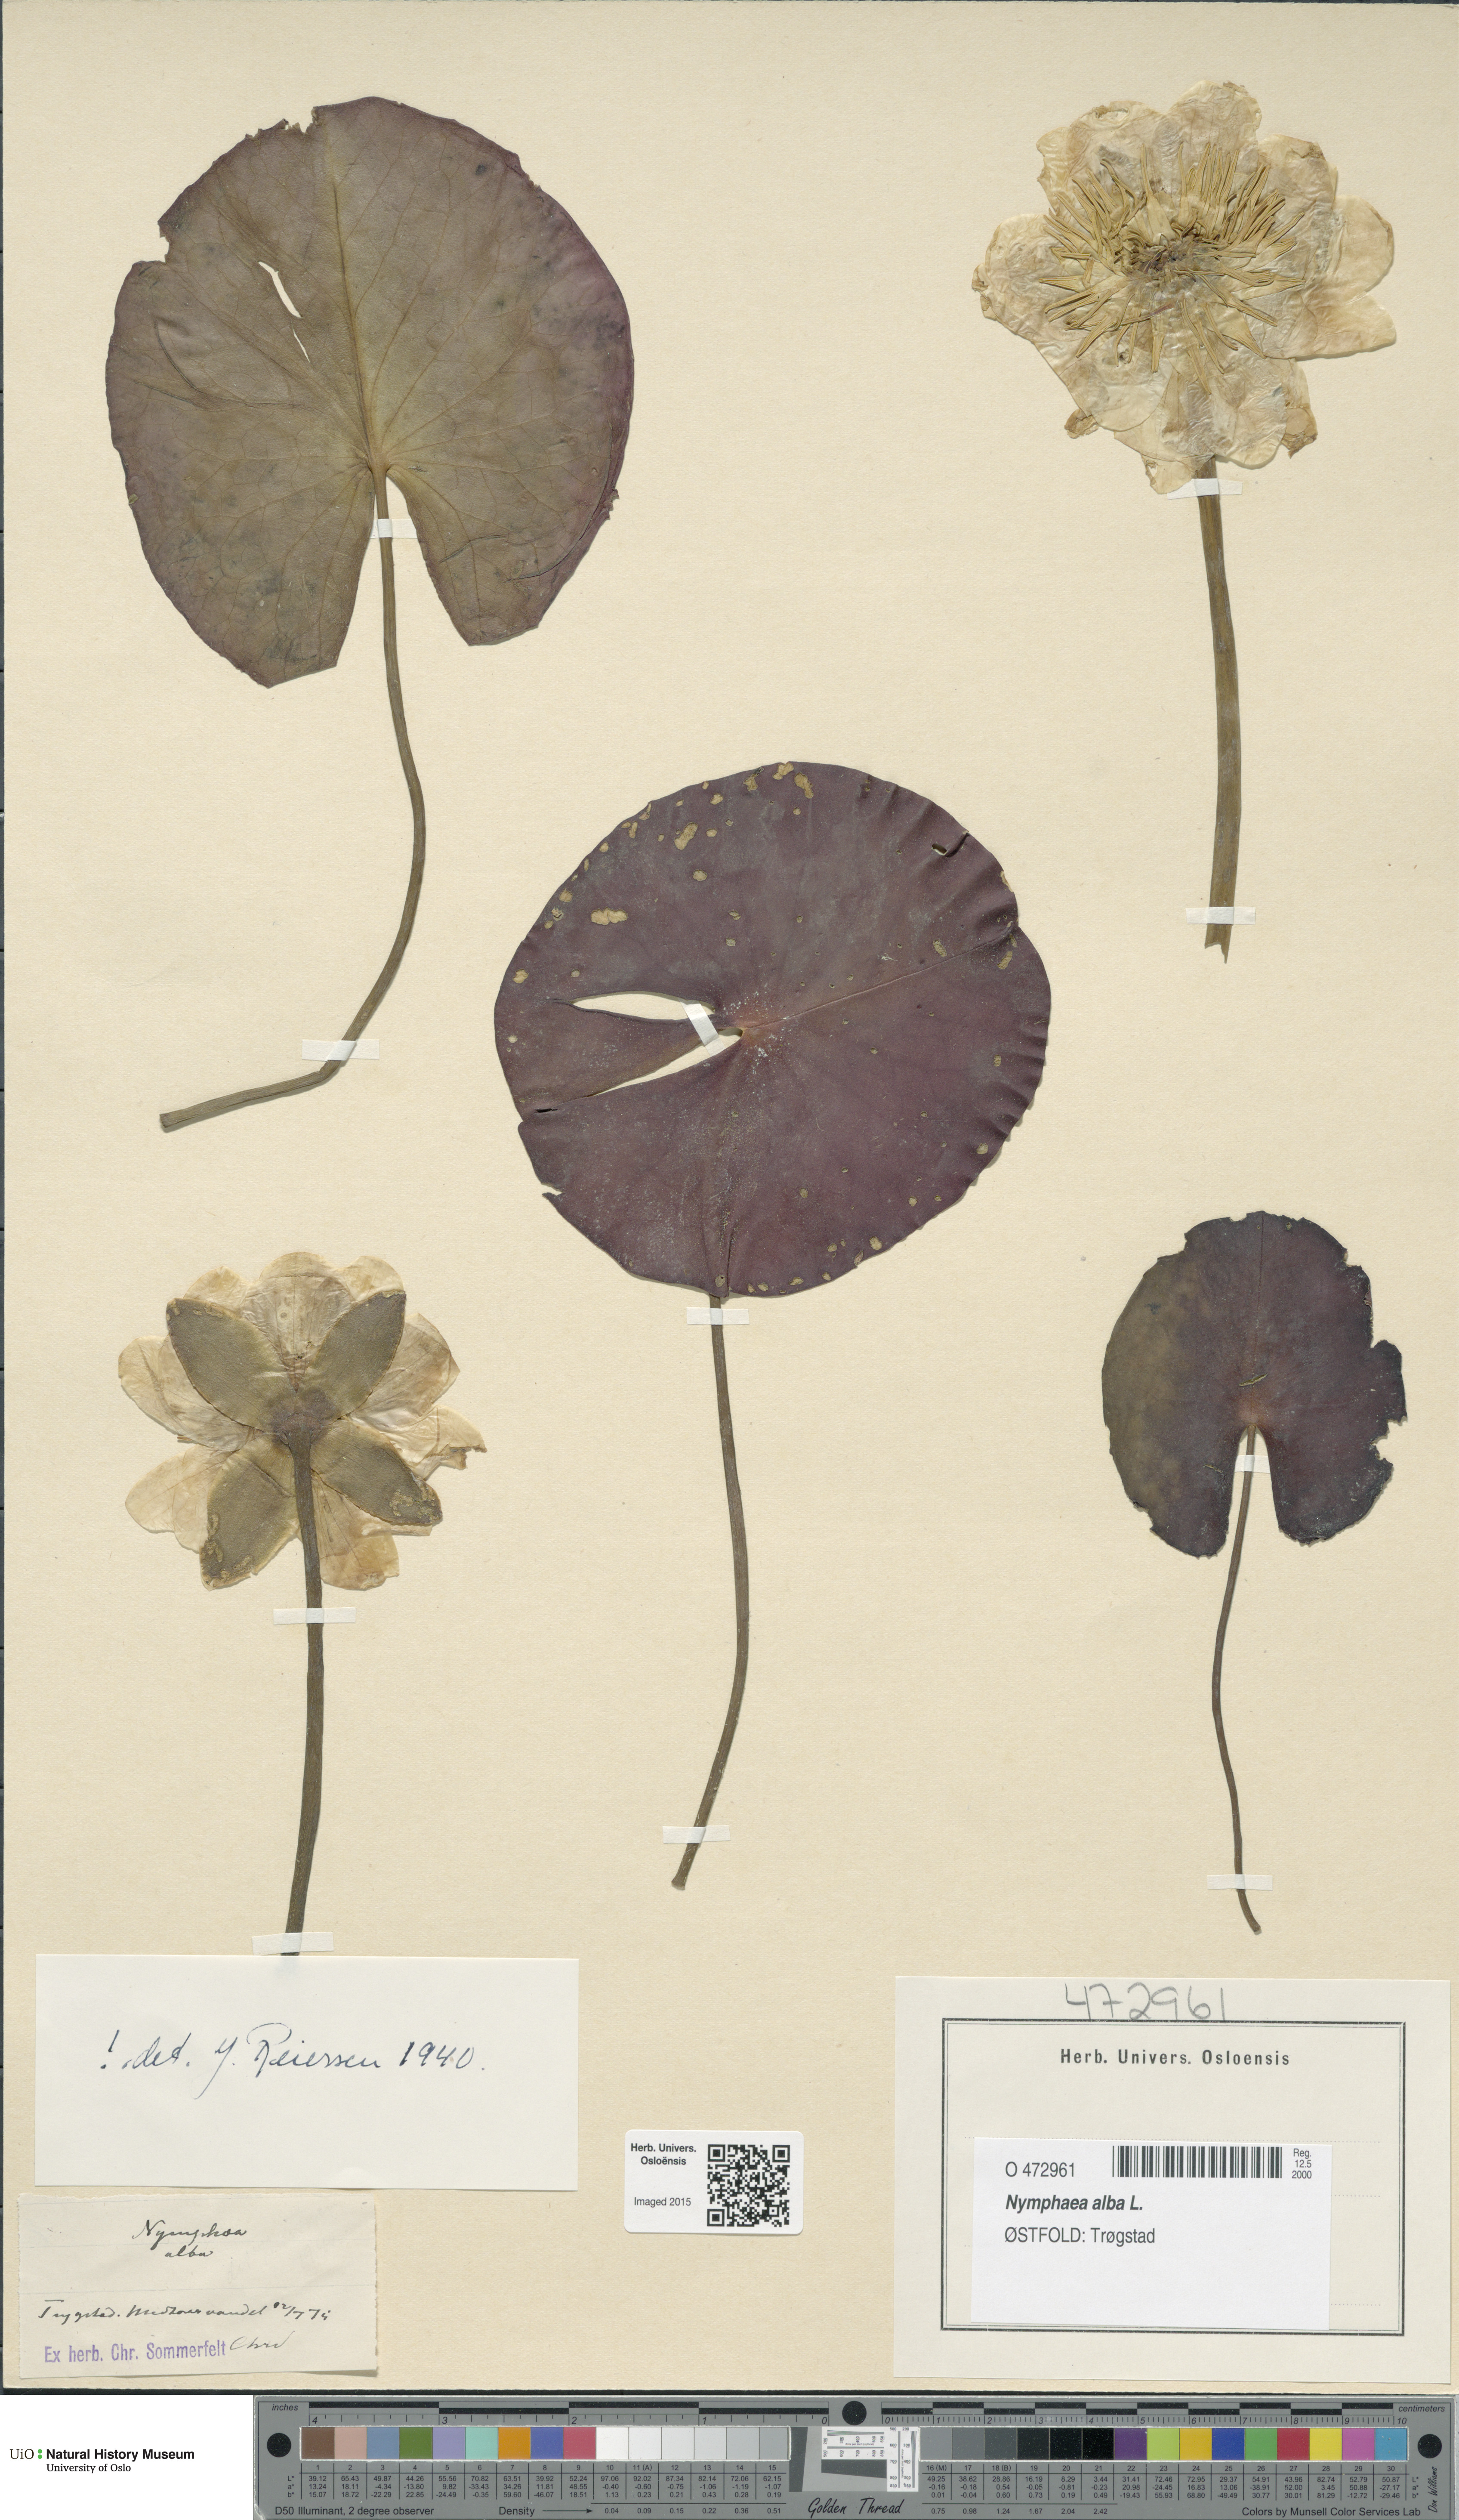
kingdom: Plantae
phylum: Tracheophyta
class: Magnoliopsida
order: Nymphaeales
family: Nymphaeaceae
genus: Nymphaea
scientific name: Nymphaea alba
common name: White water-lily
